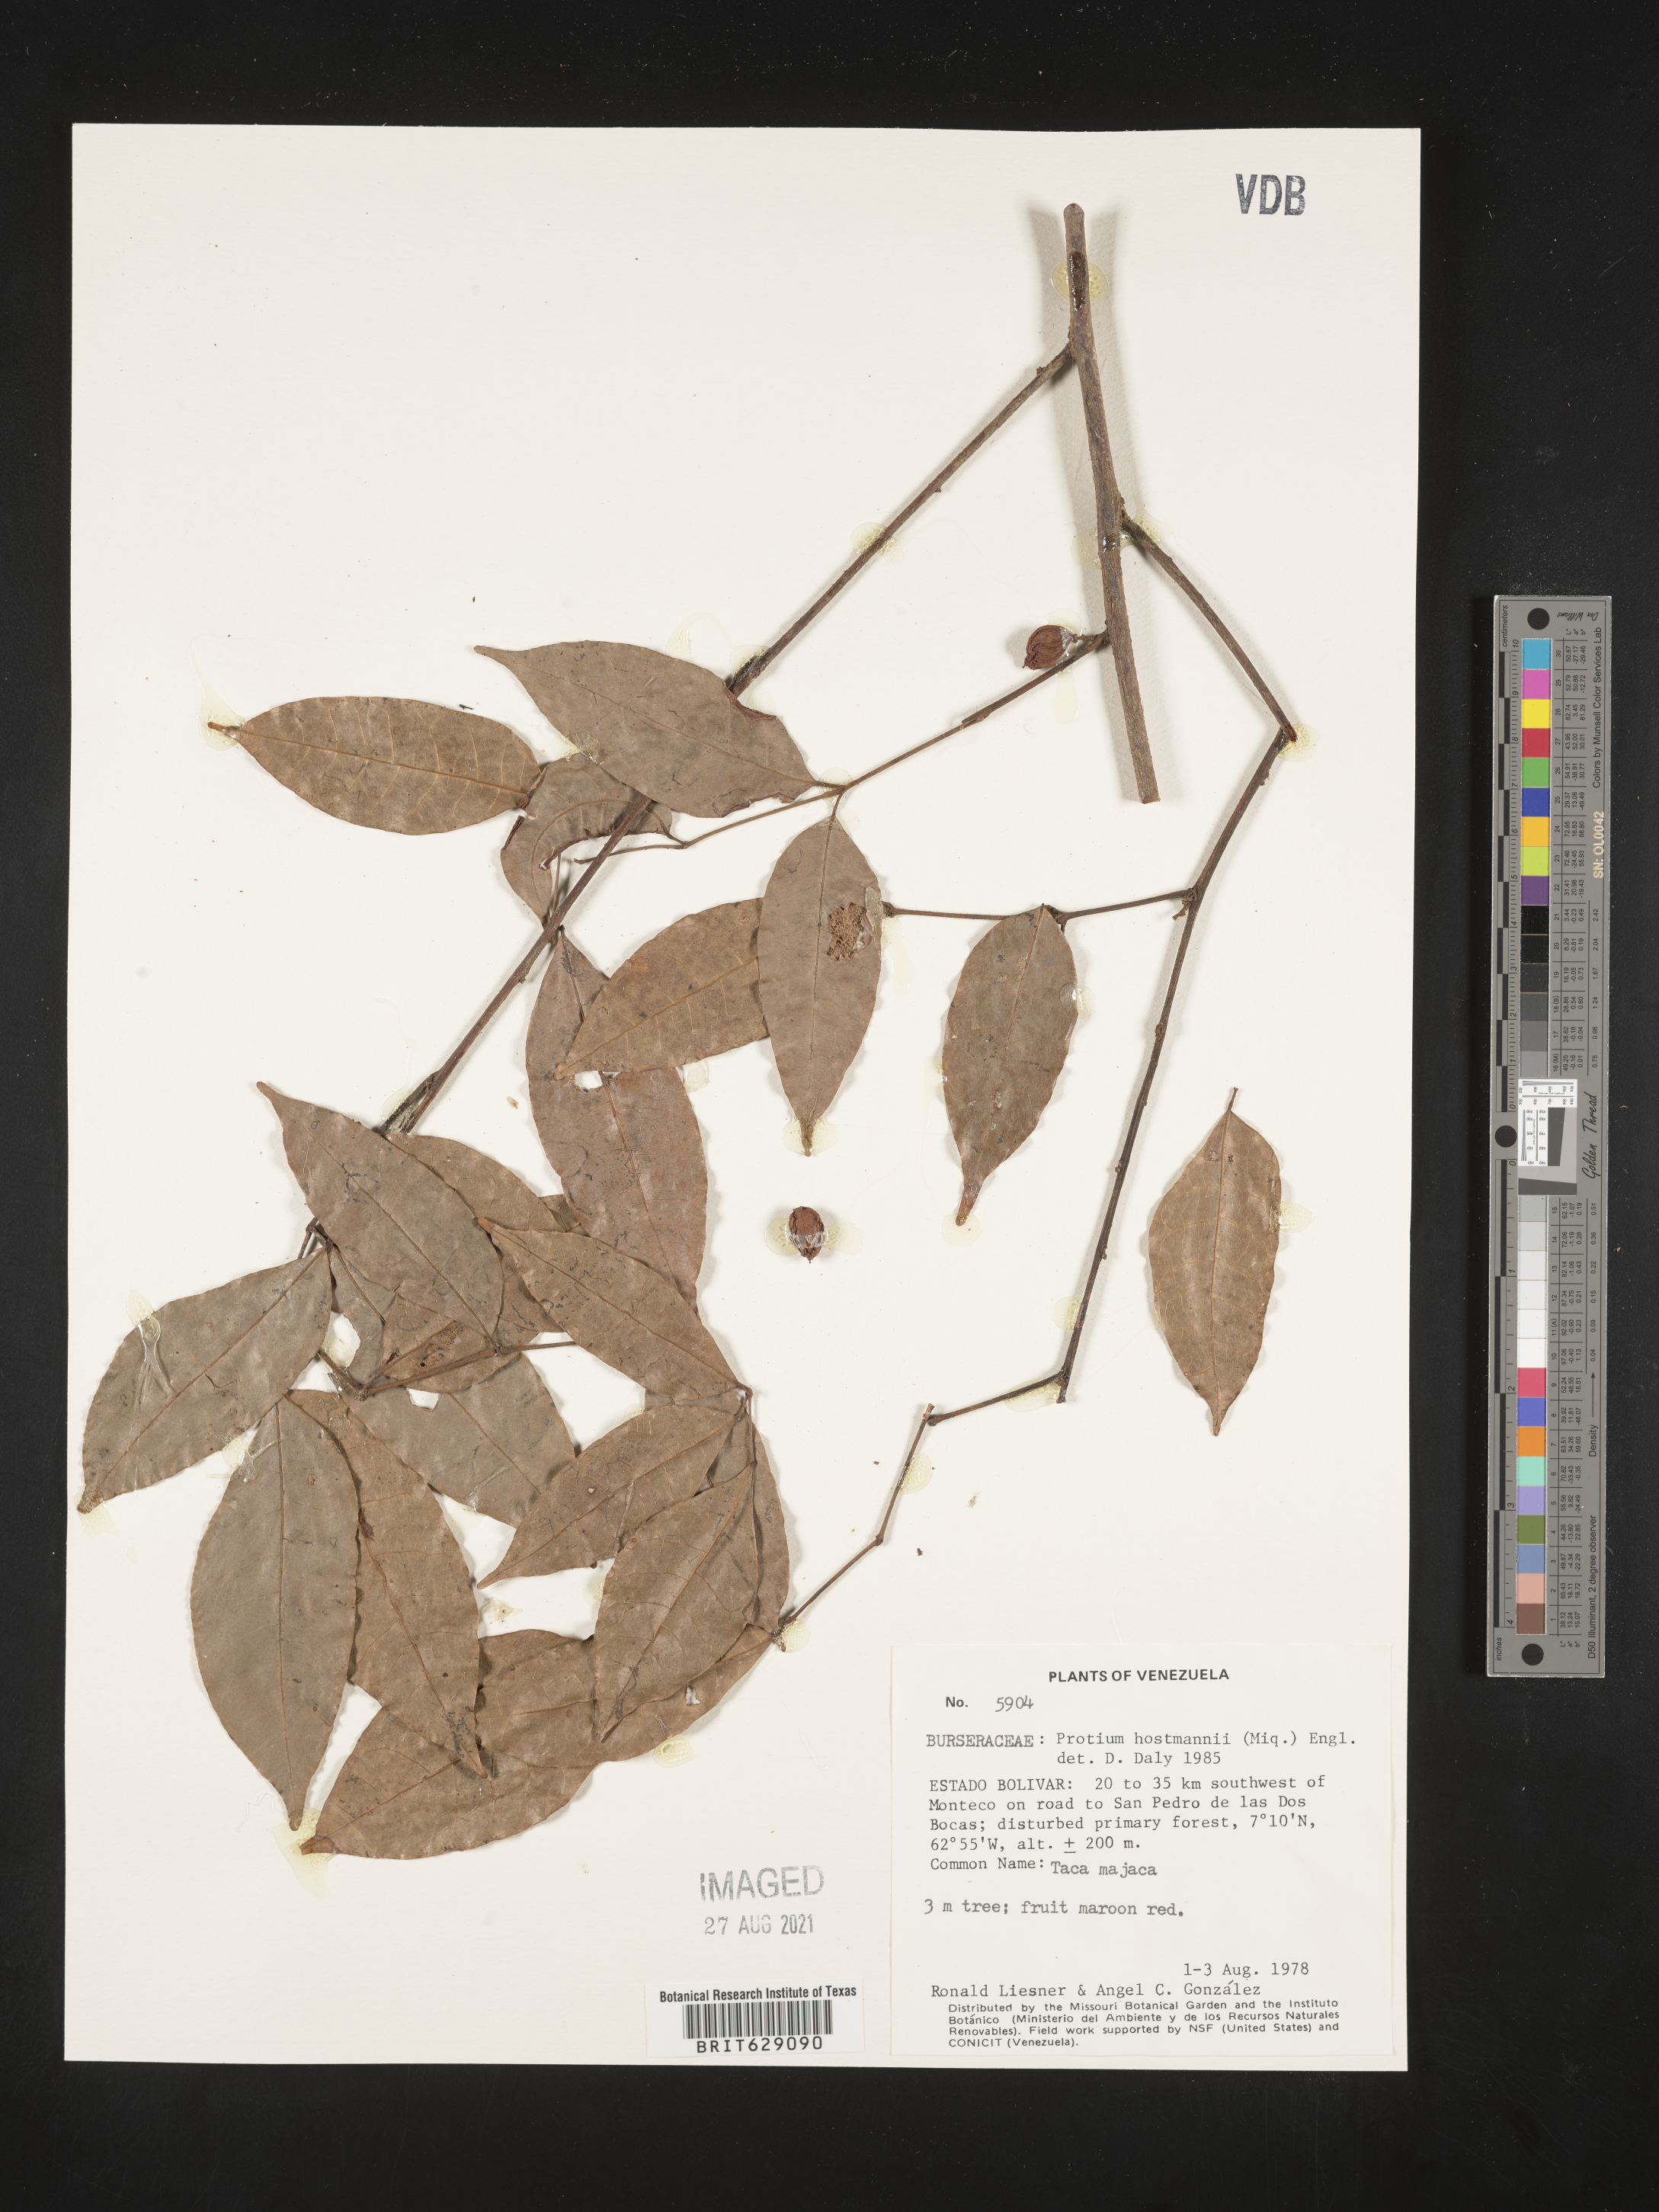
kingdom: Plantae
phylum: Tracheophyta
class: Magnoliopsida
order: Sapindales
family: Burseraceae
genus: Protium
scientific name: Protium guianense
